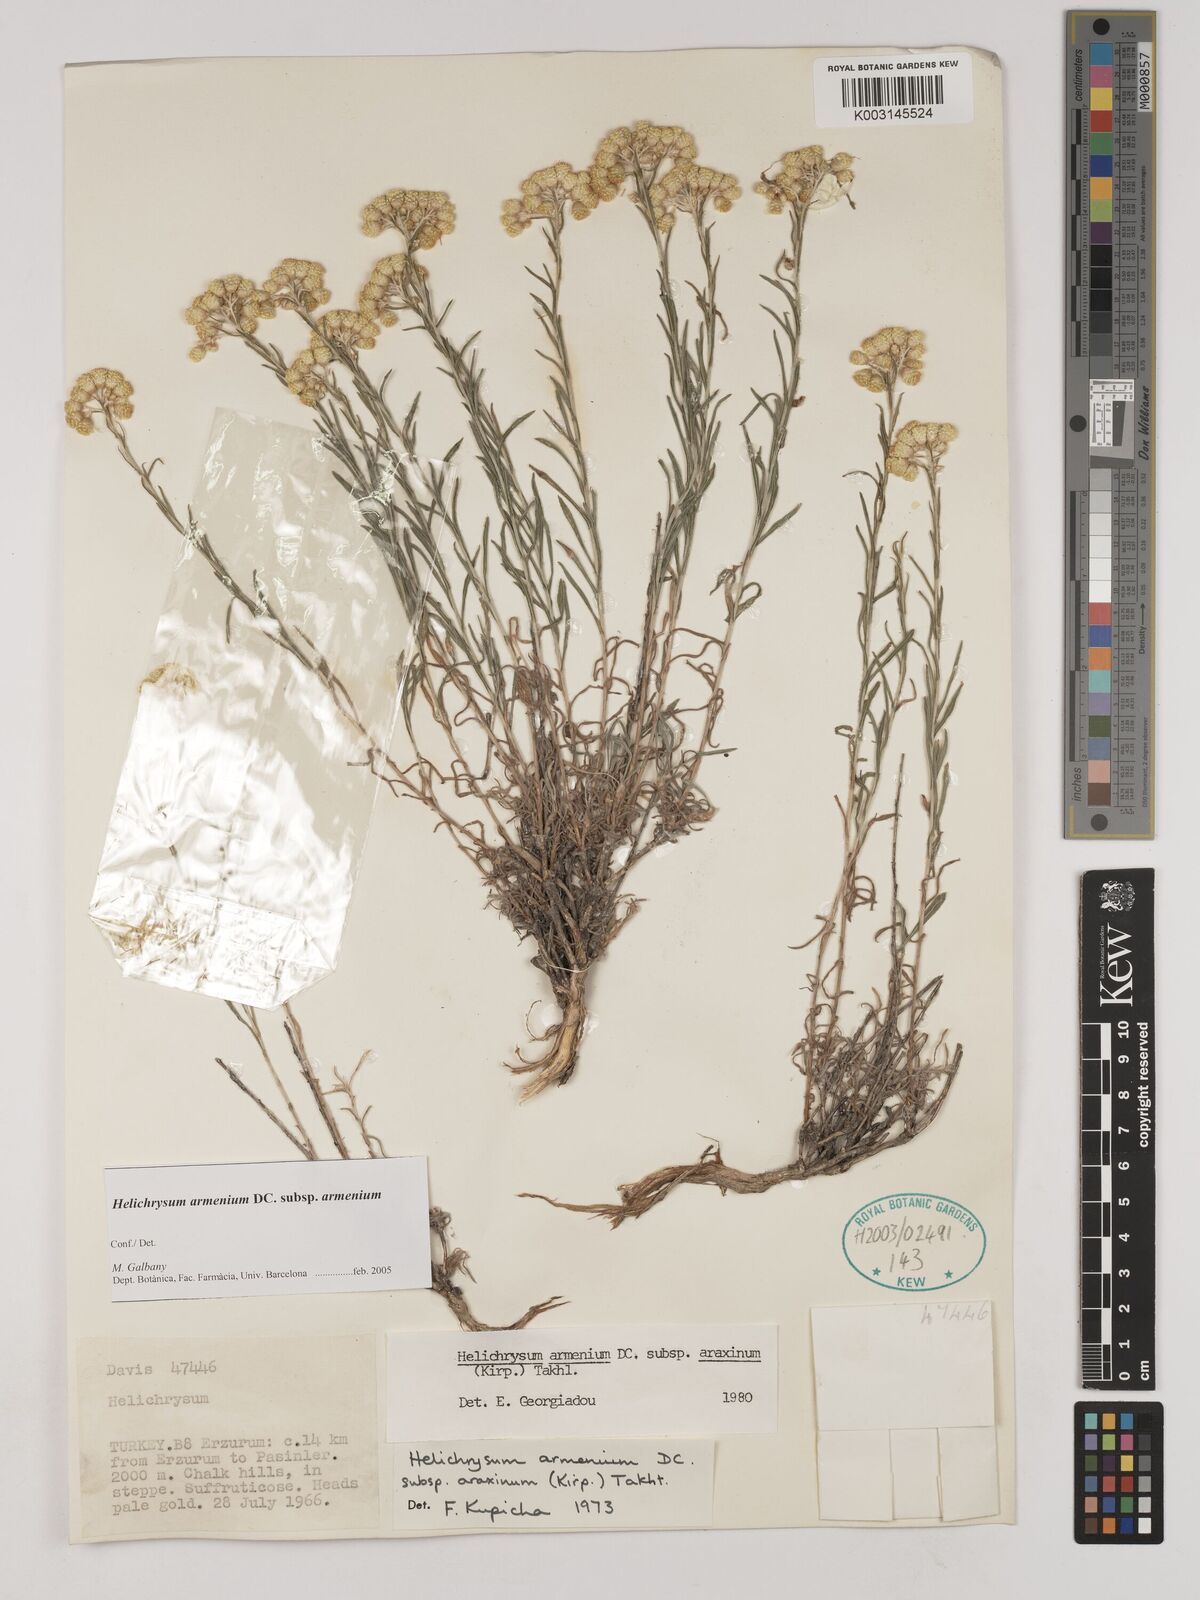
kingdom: Plantae
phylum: Tracheophyta
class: Magnoliopsida
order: Asterales
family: Asteraceae
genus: Helichrysum
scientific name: Helichrysum armenium
